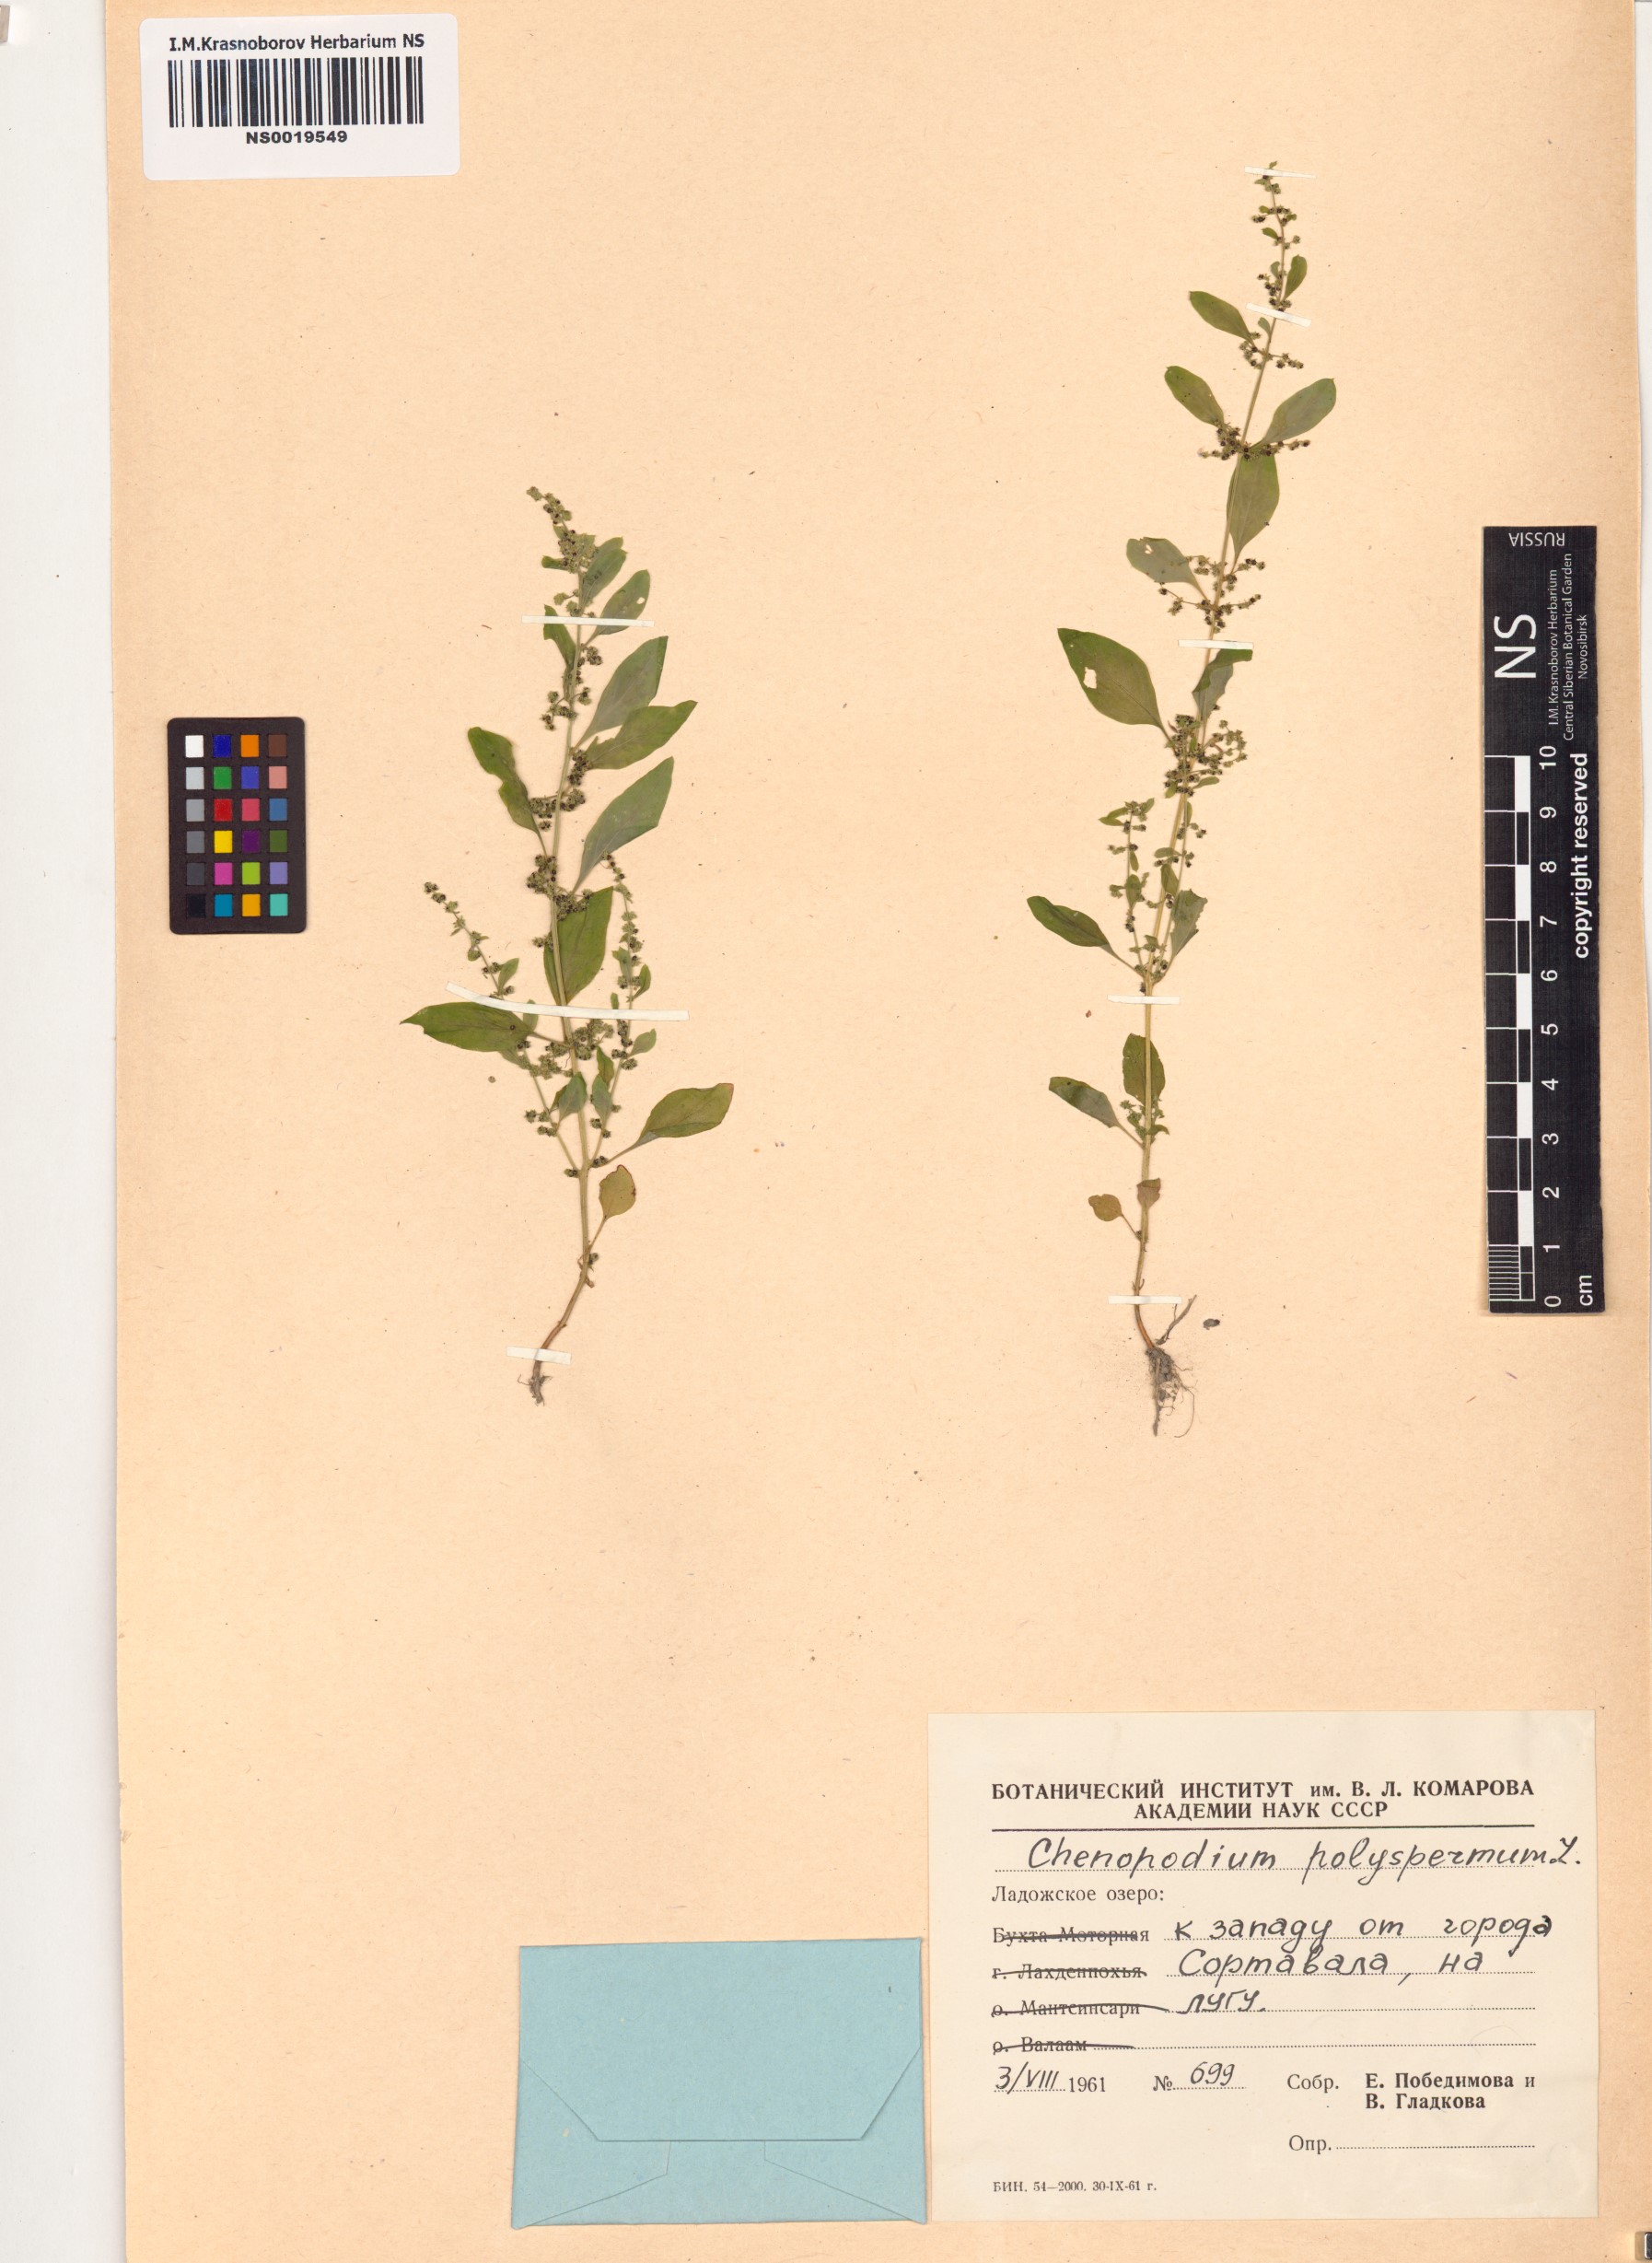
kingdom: Plantae
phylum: Tracheophyta
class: Magnoliopsida
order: Caryophyllales
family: Amaranthaceae
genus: Lipandra
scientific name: Lipandra polysperma
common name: Many-seed goosefoot
